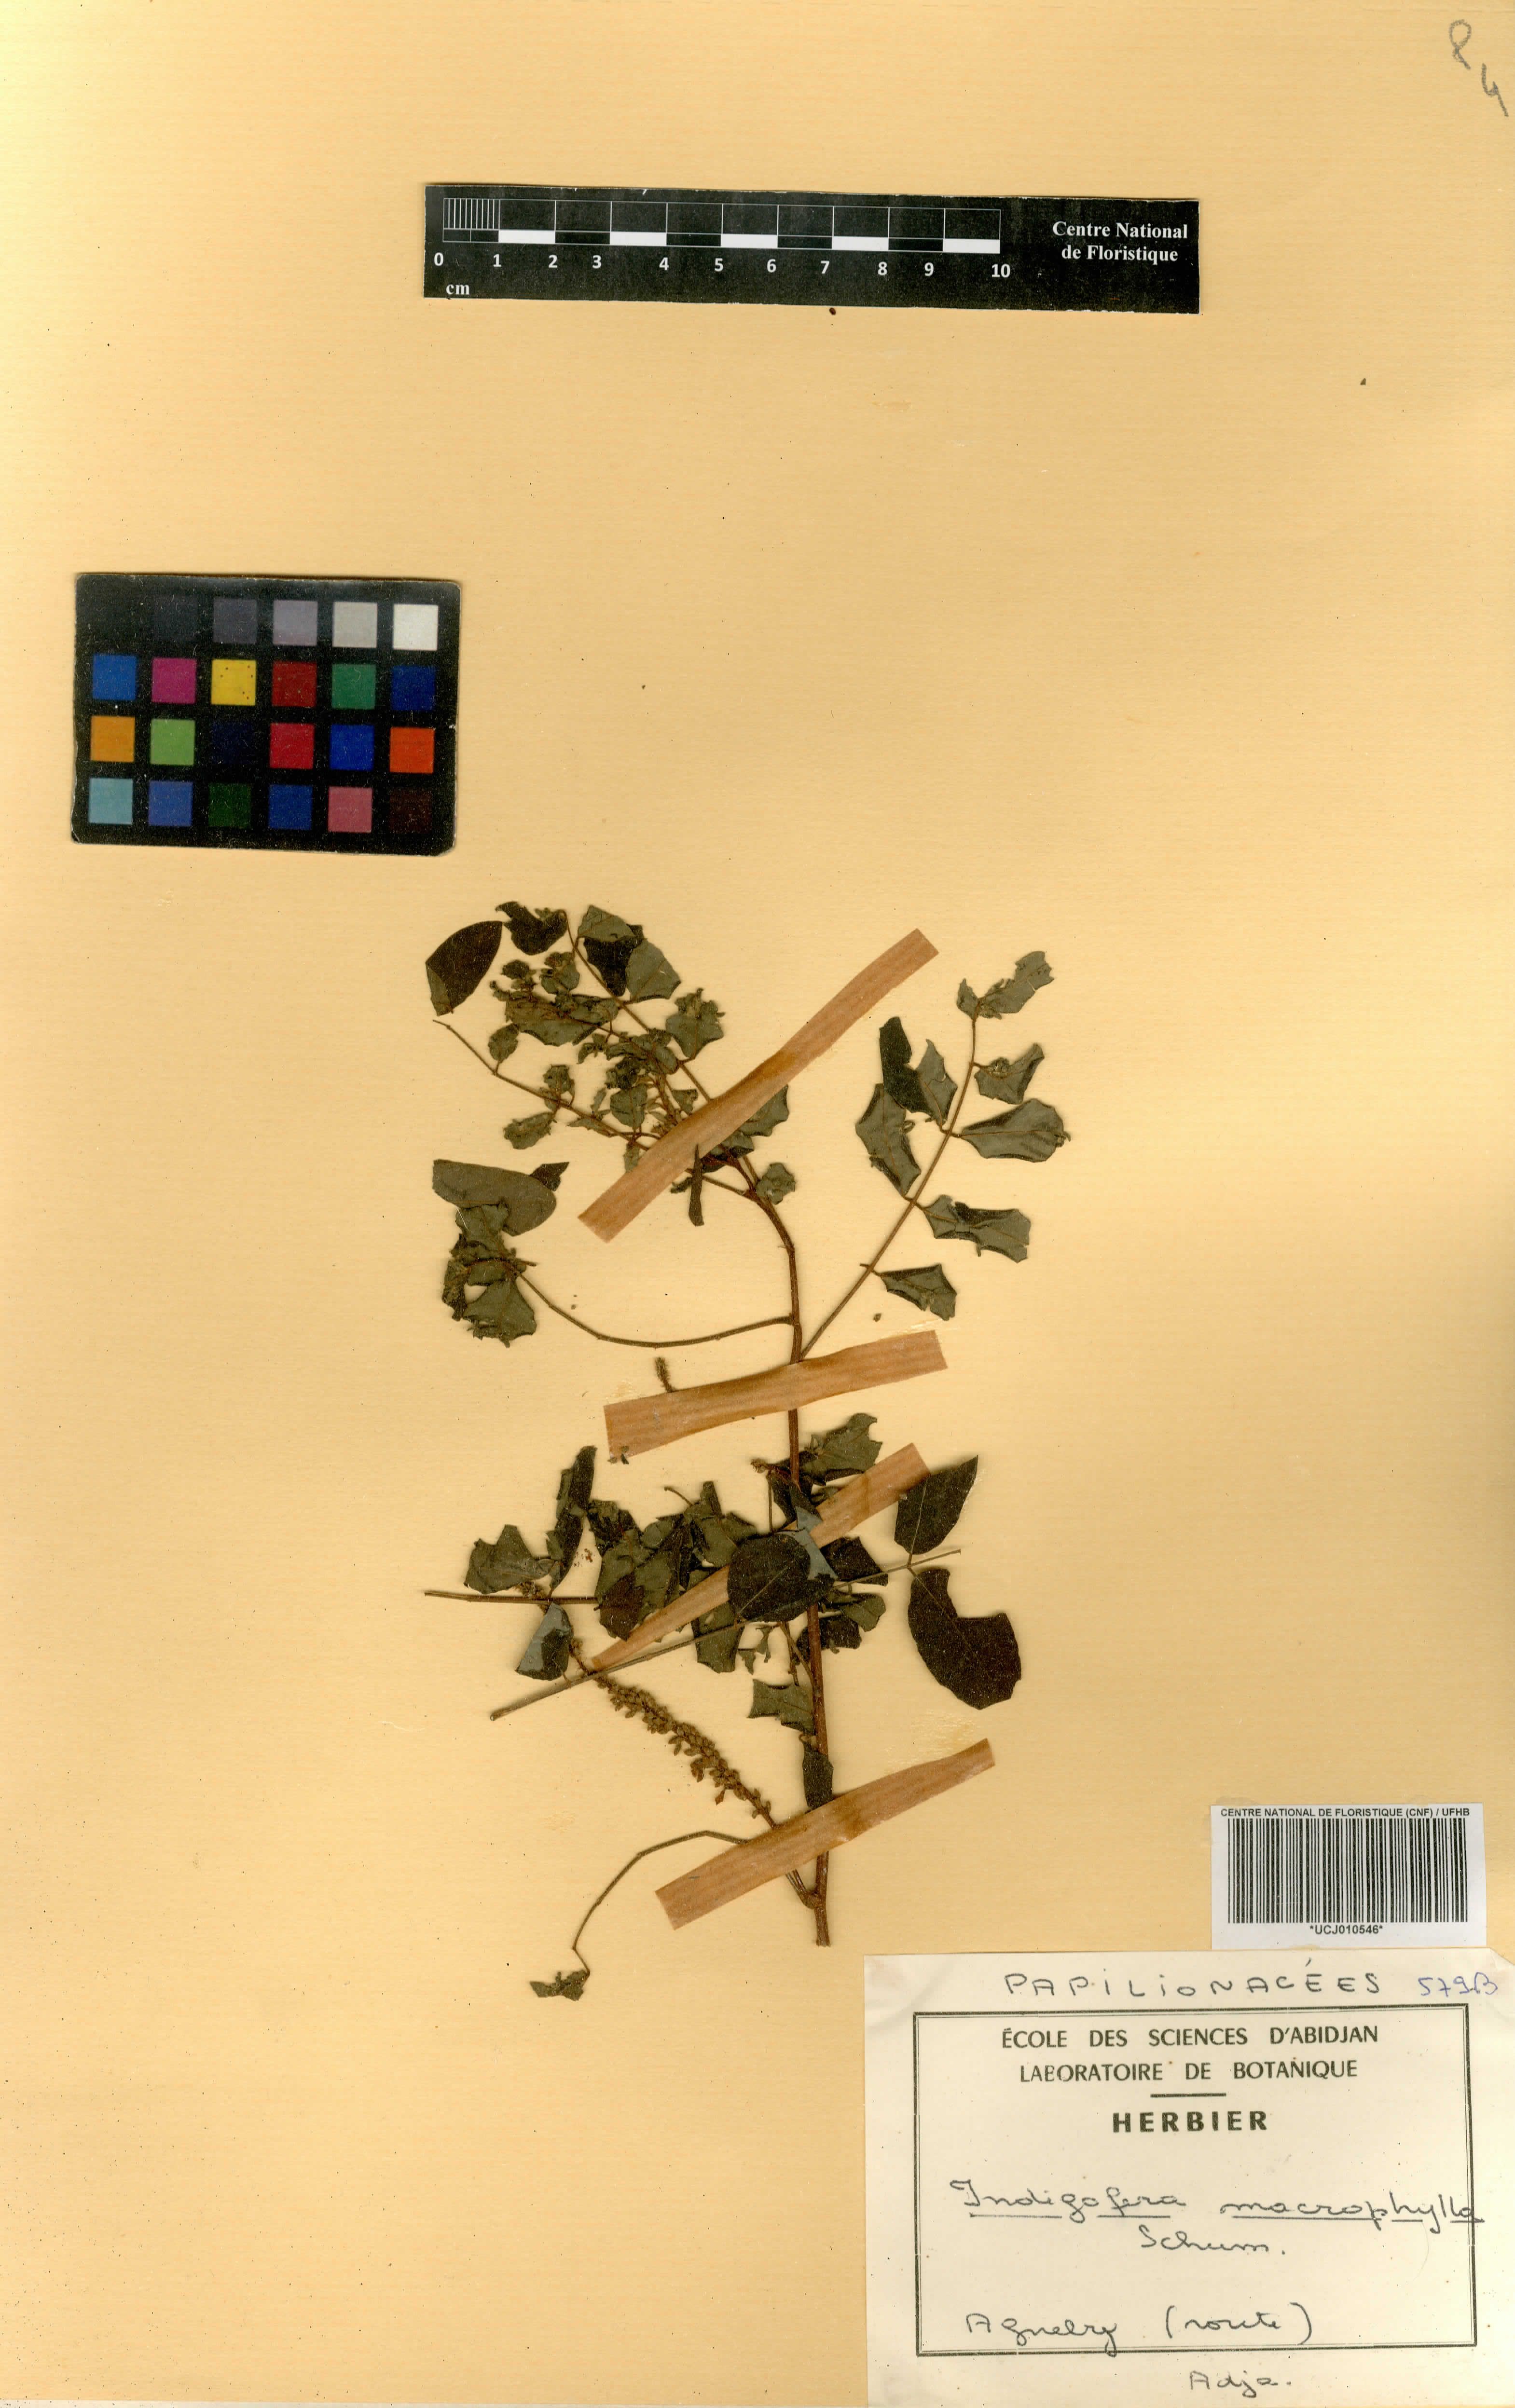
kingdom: Plantae
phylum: Tracheophyta
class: Magnoliopsida
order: Fabales
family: Fabaceae
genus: Indigofera
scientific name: Indigofera macrophylla
